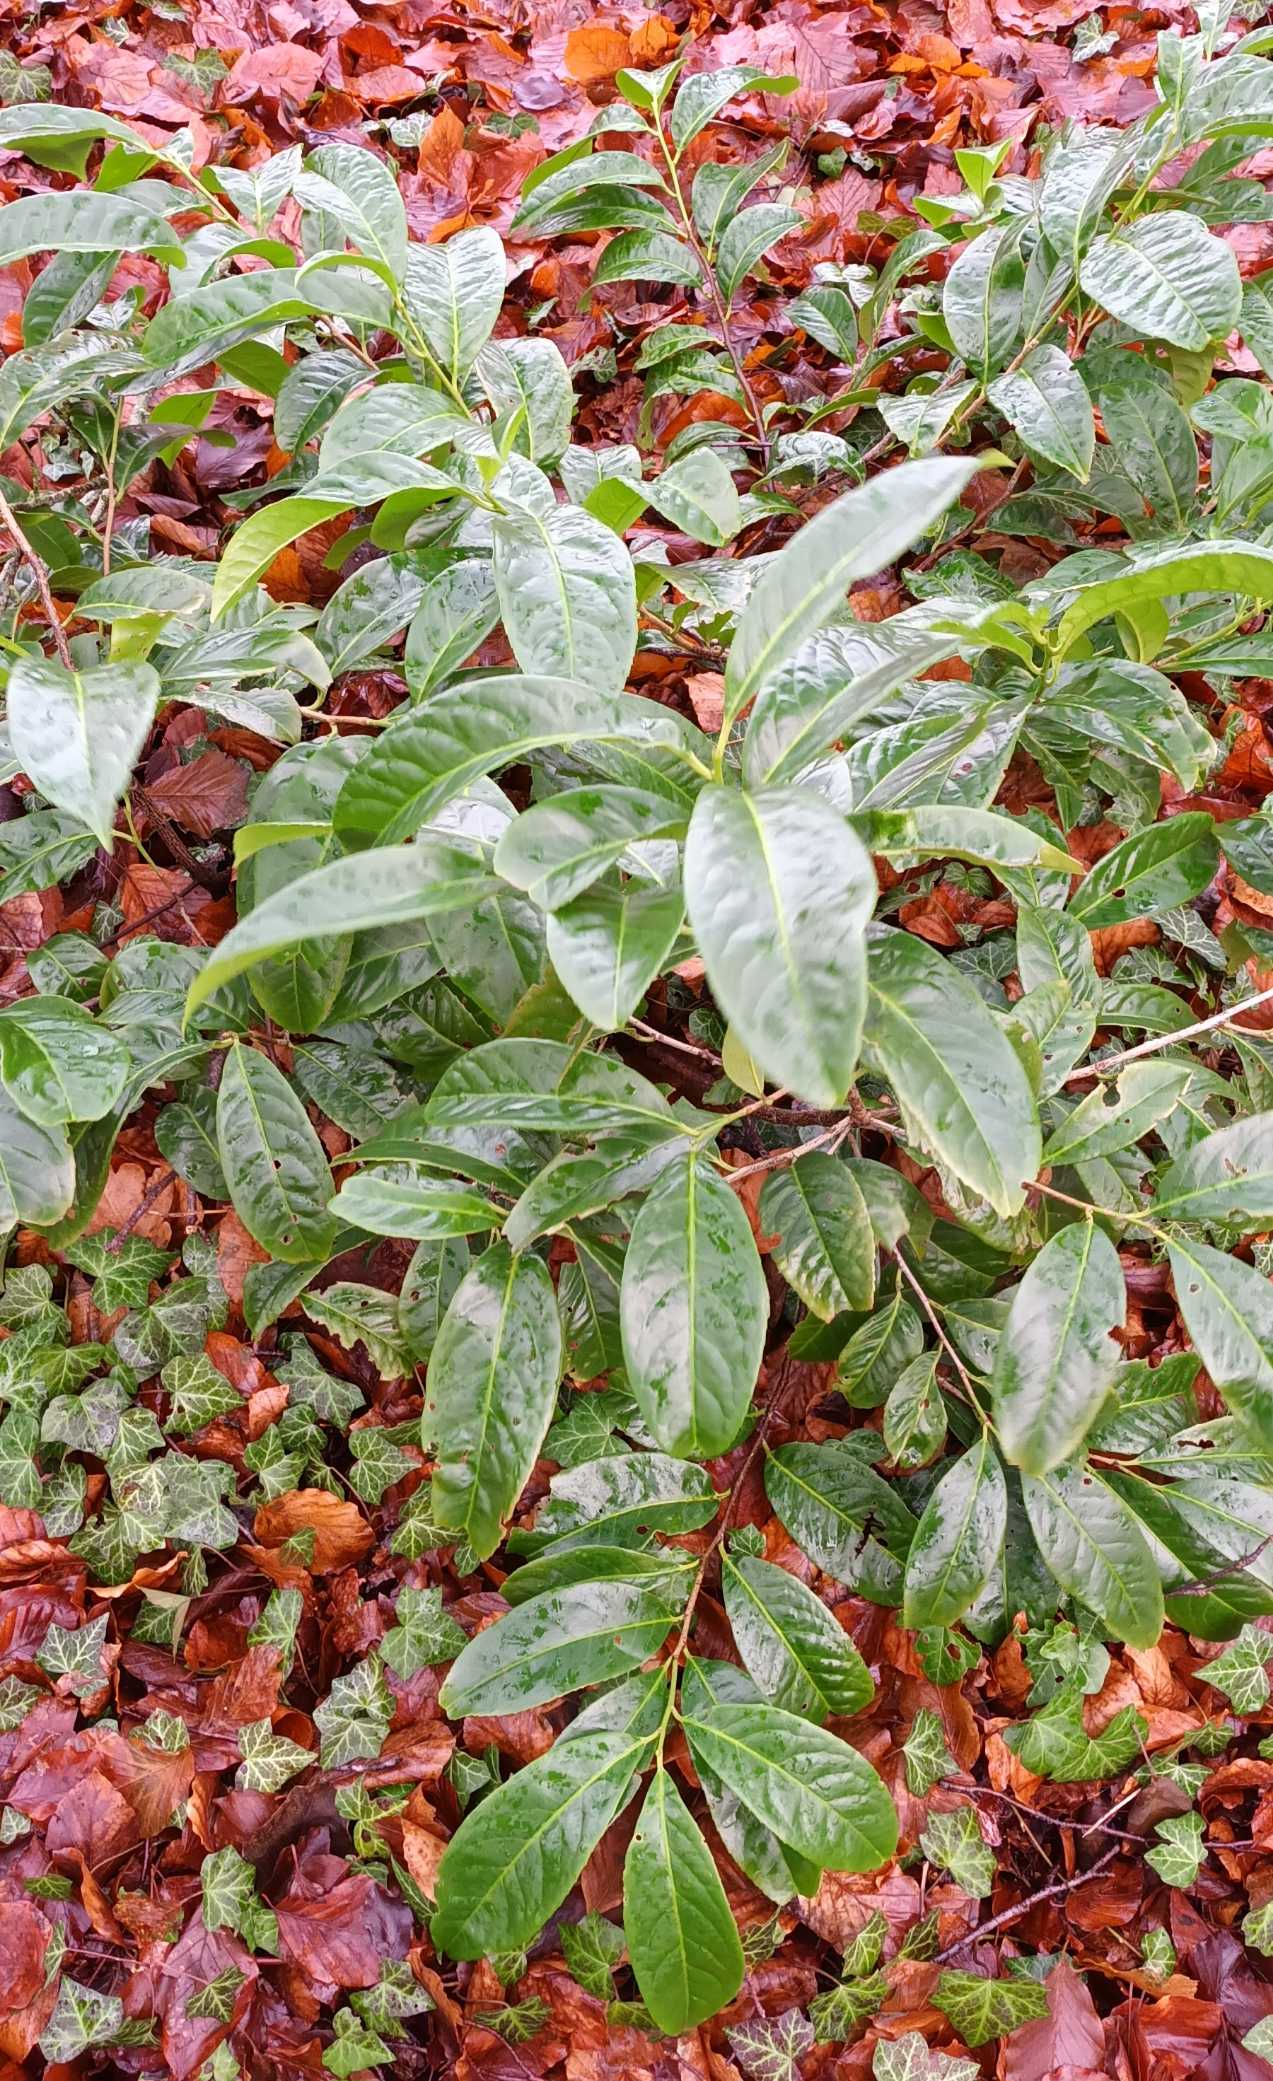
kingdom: Plantae
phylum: Tracheophyta
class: Magnoliopsida
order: Rosales
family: Rosaceae
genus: Prunus
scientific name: Prunus laurocerasus
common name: Laurbærkirsebær
